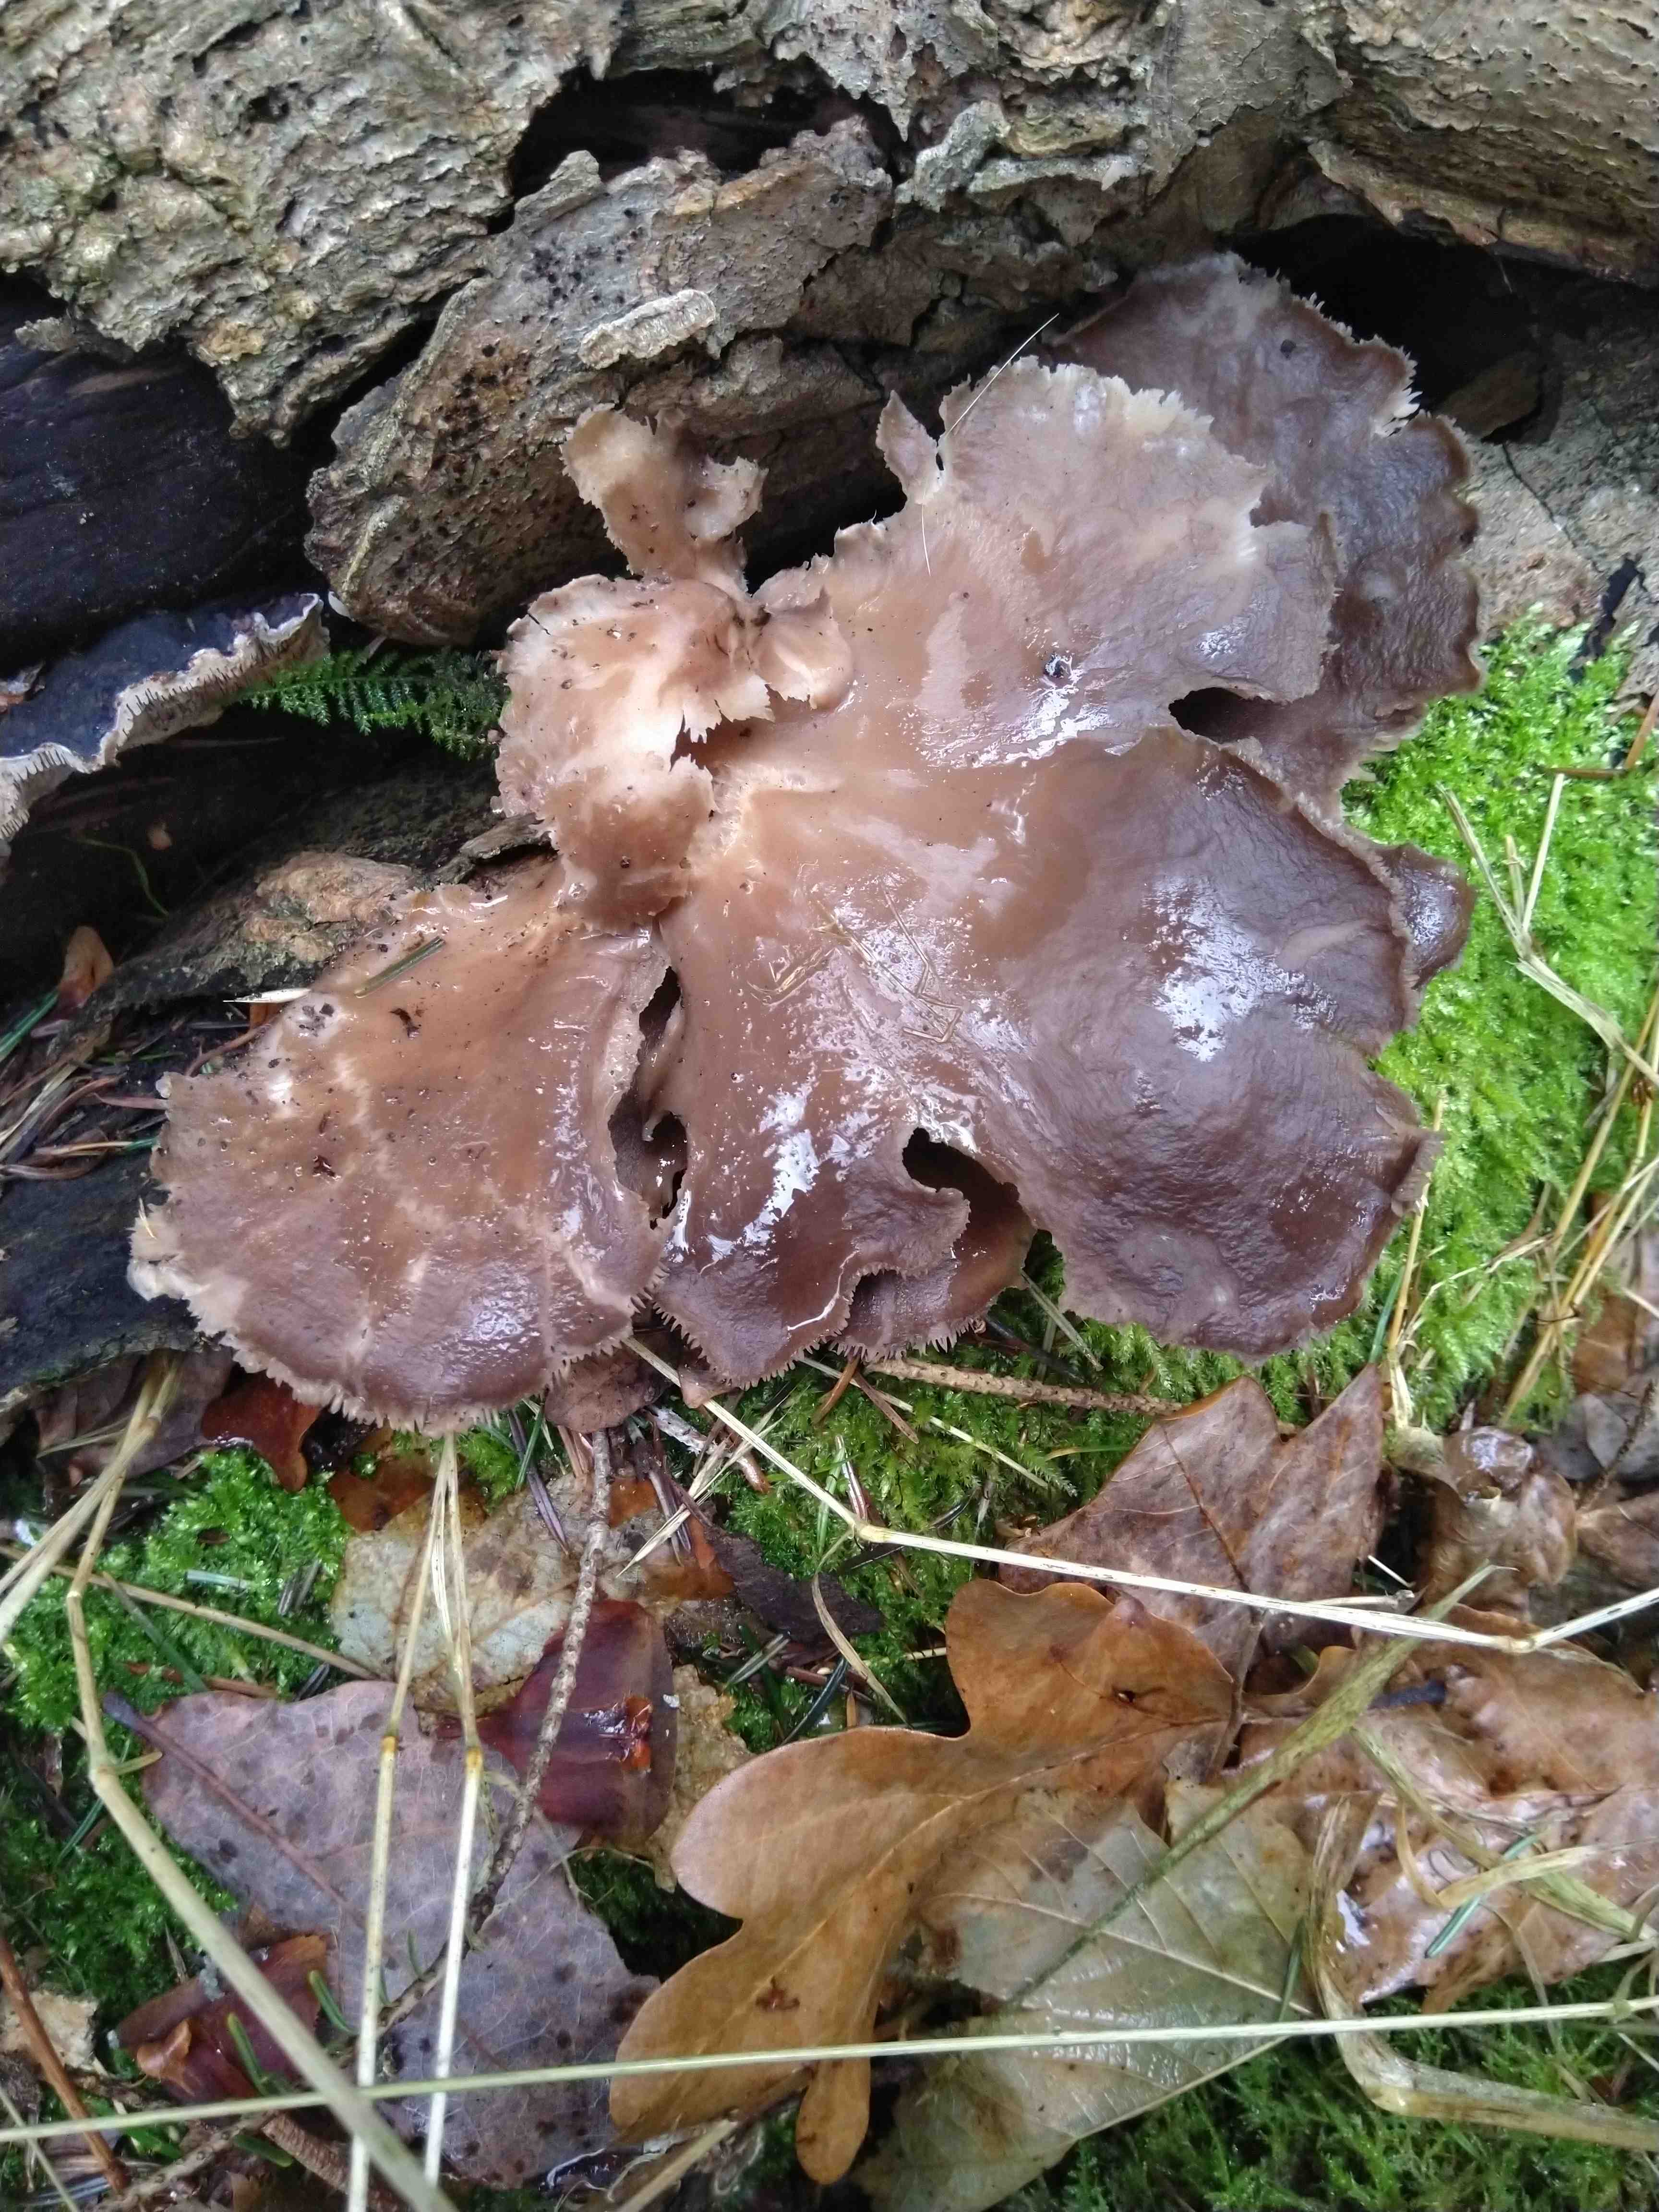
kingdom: Fungi
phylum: Basidiomycota
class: Agaricomycetes
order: Agaricales
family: Pleurotaceae
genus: Pleurotus
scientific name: Pleurotus ostreatus
